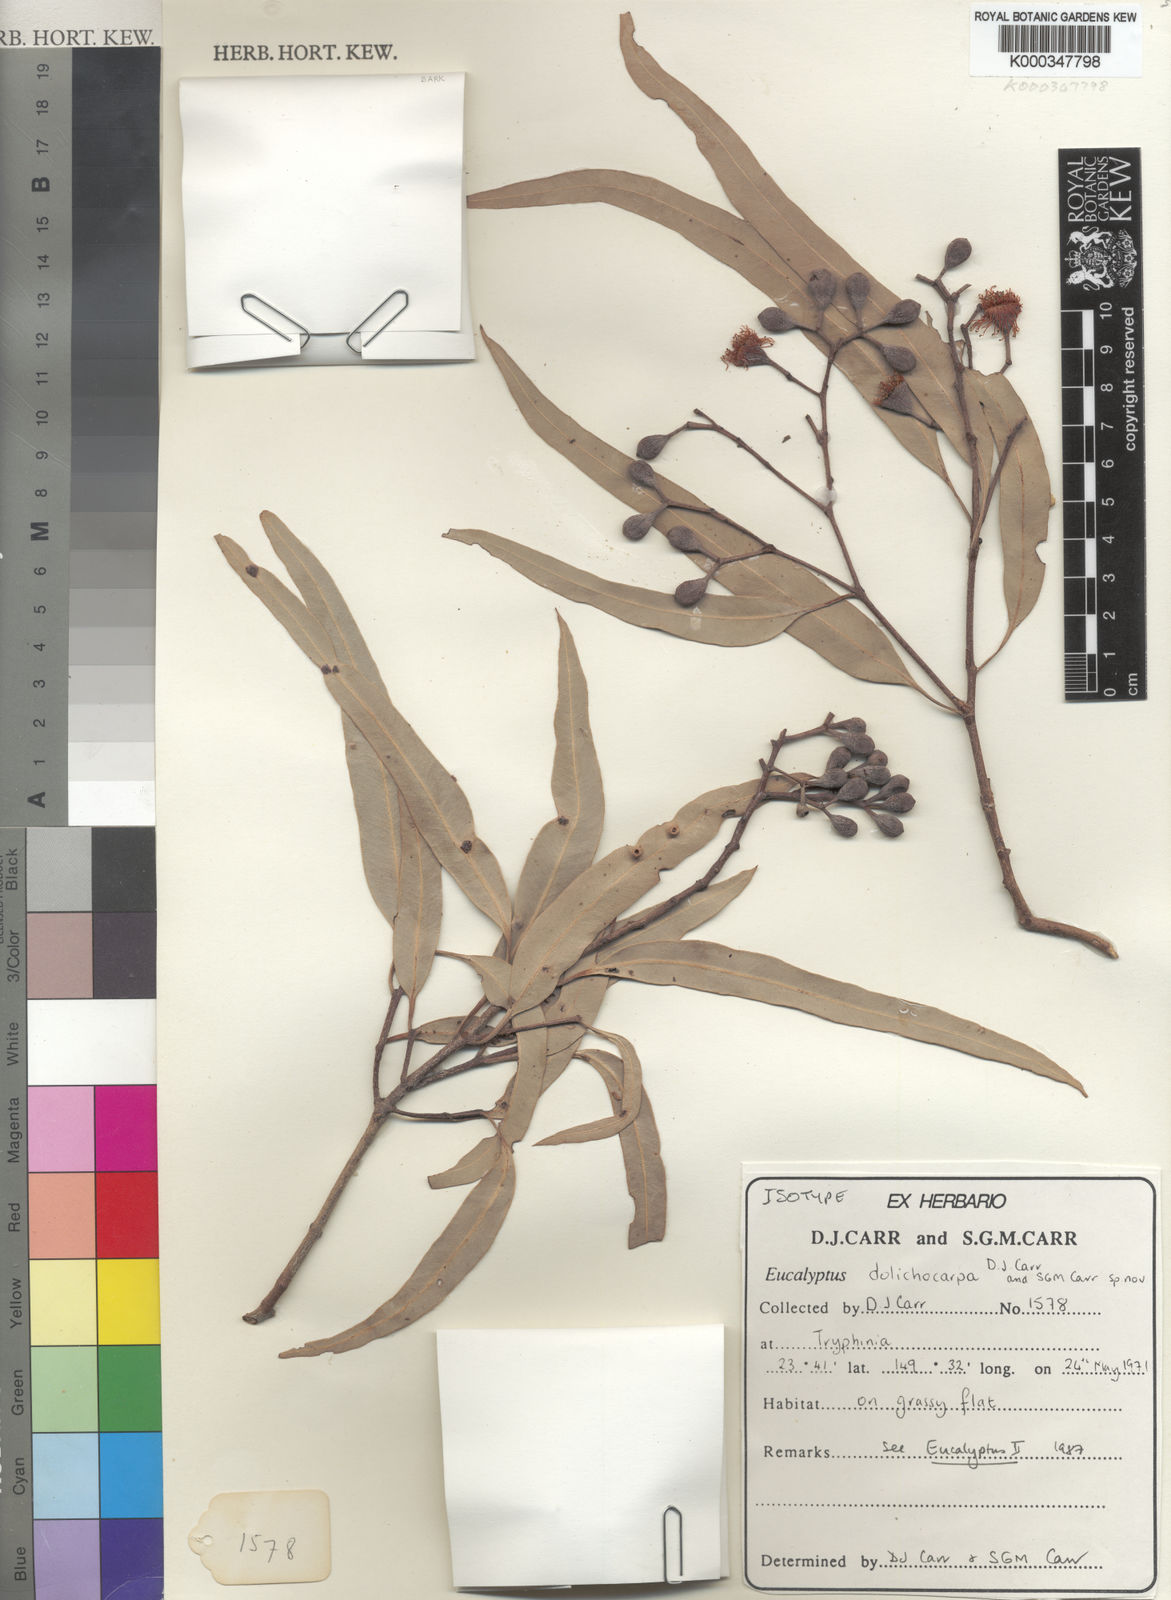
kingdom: Plantae
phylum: Tracheophyta
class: Magnoliopsida
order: Myrtales
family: Myrtaceae
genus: Corymbia
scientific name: Corymbia clarksoniana
